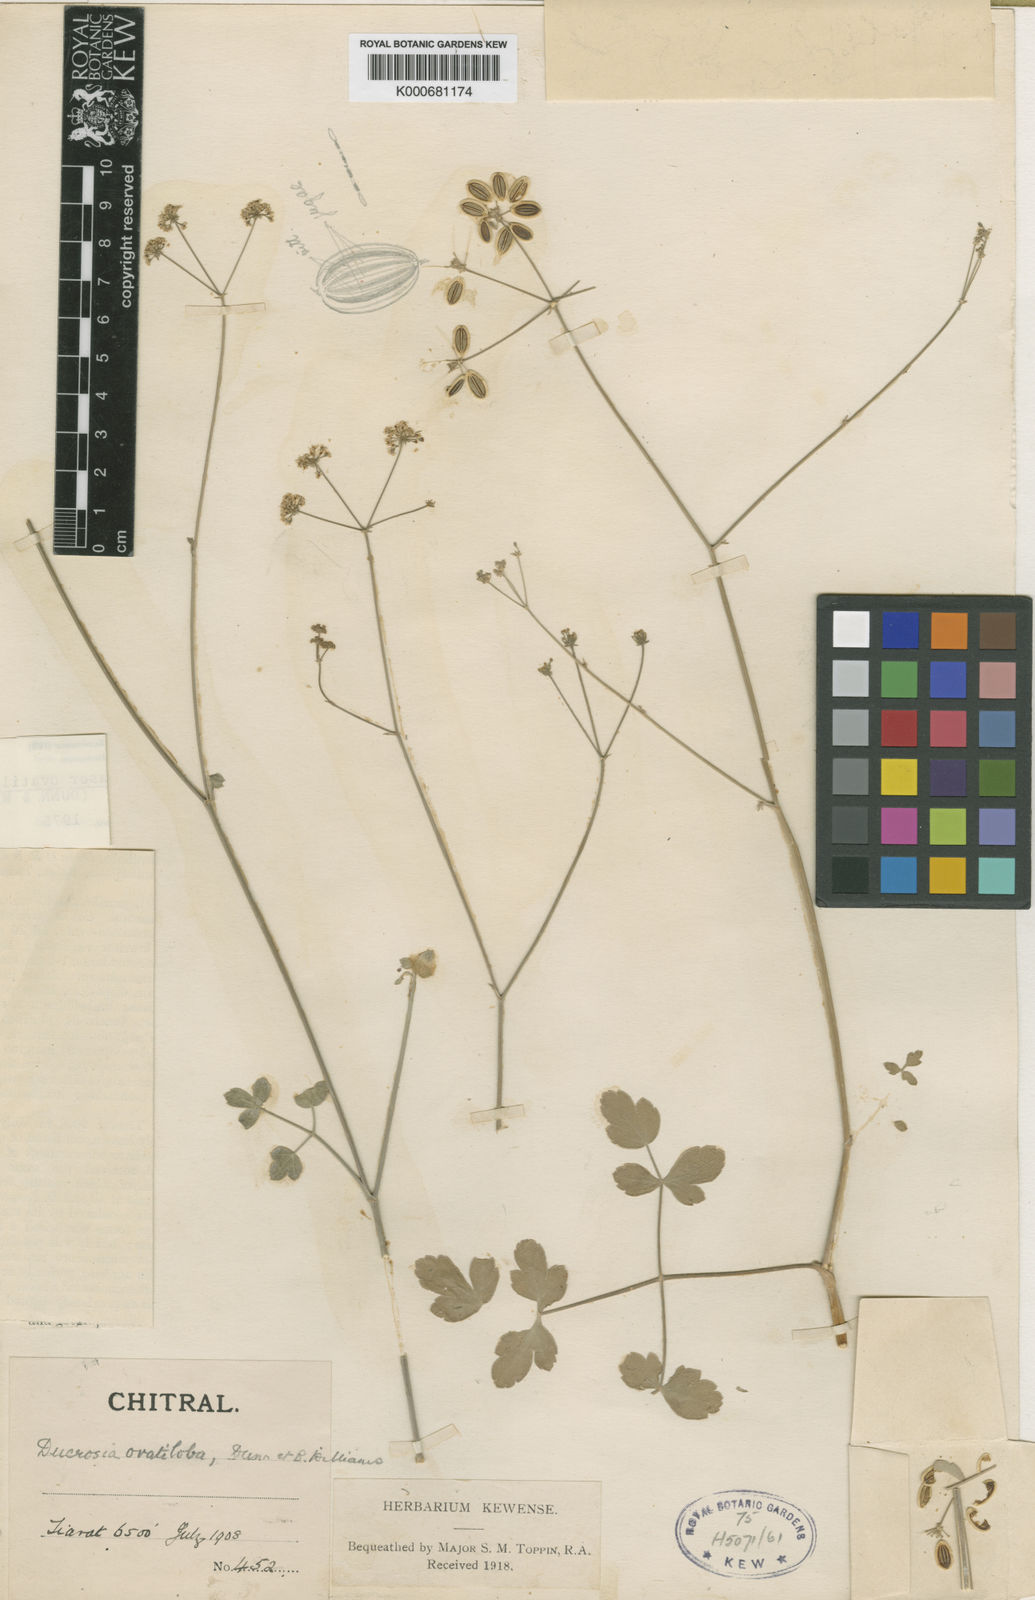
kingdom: Plantae
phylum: Tracheophyta
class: Magnoliopsida
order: Apiales
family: Apiaceae
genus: Tricholaser
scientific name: Tricholaser ovatilobum
